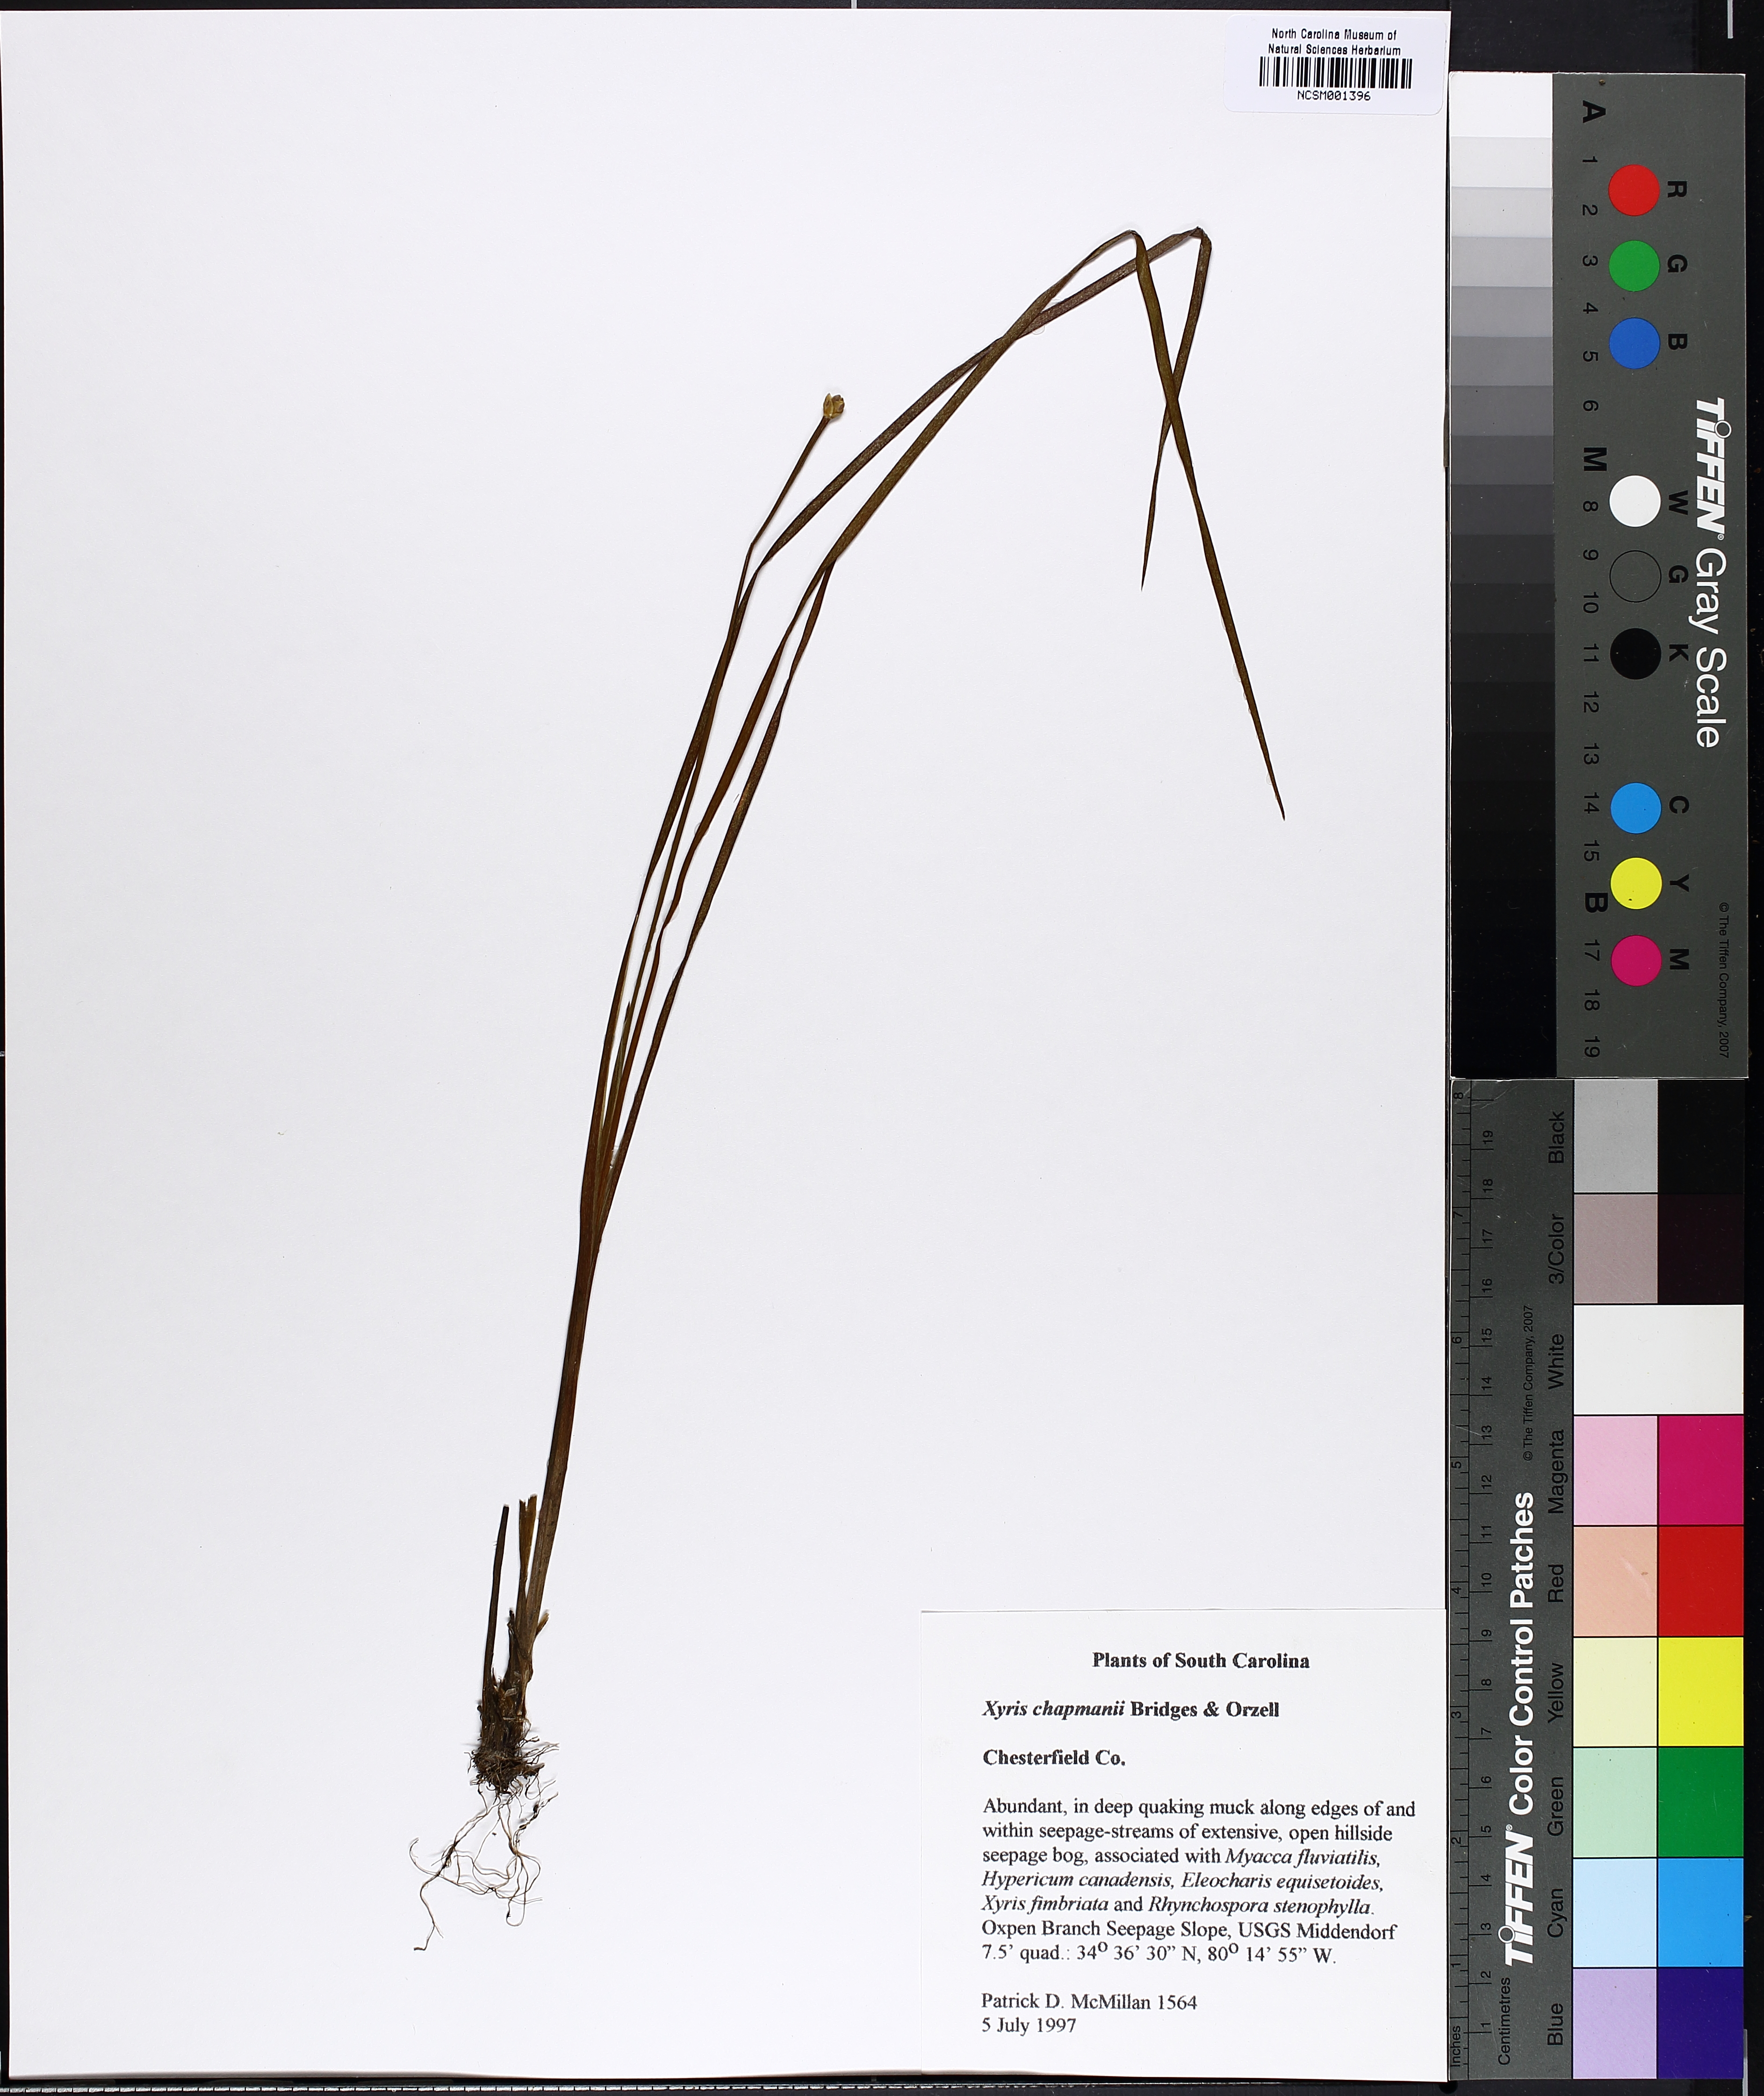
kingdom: Plantae
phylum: Tracheophyta
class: Liliopsida
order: Poales
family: Xyridaceae
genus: Xyris
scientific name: Xyris chapmanii
